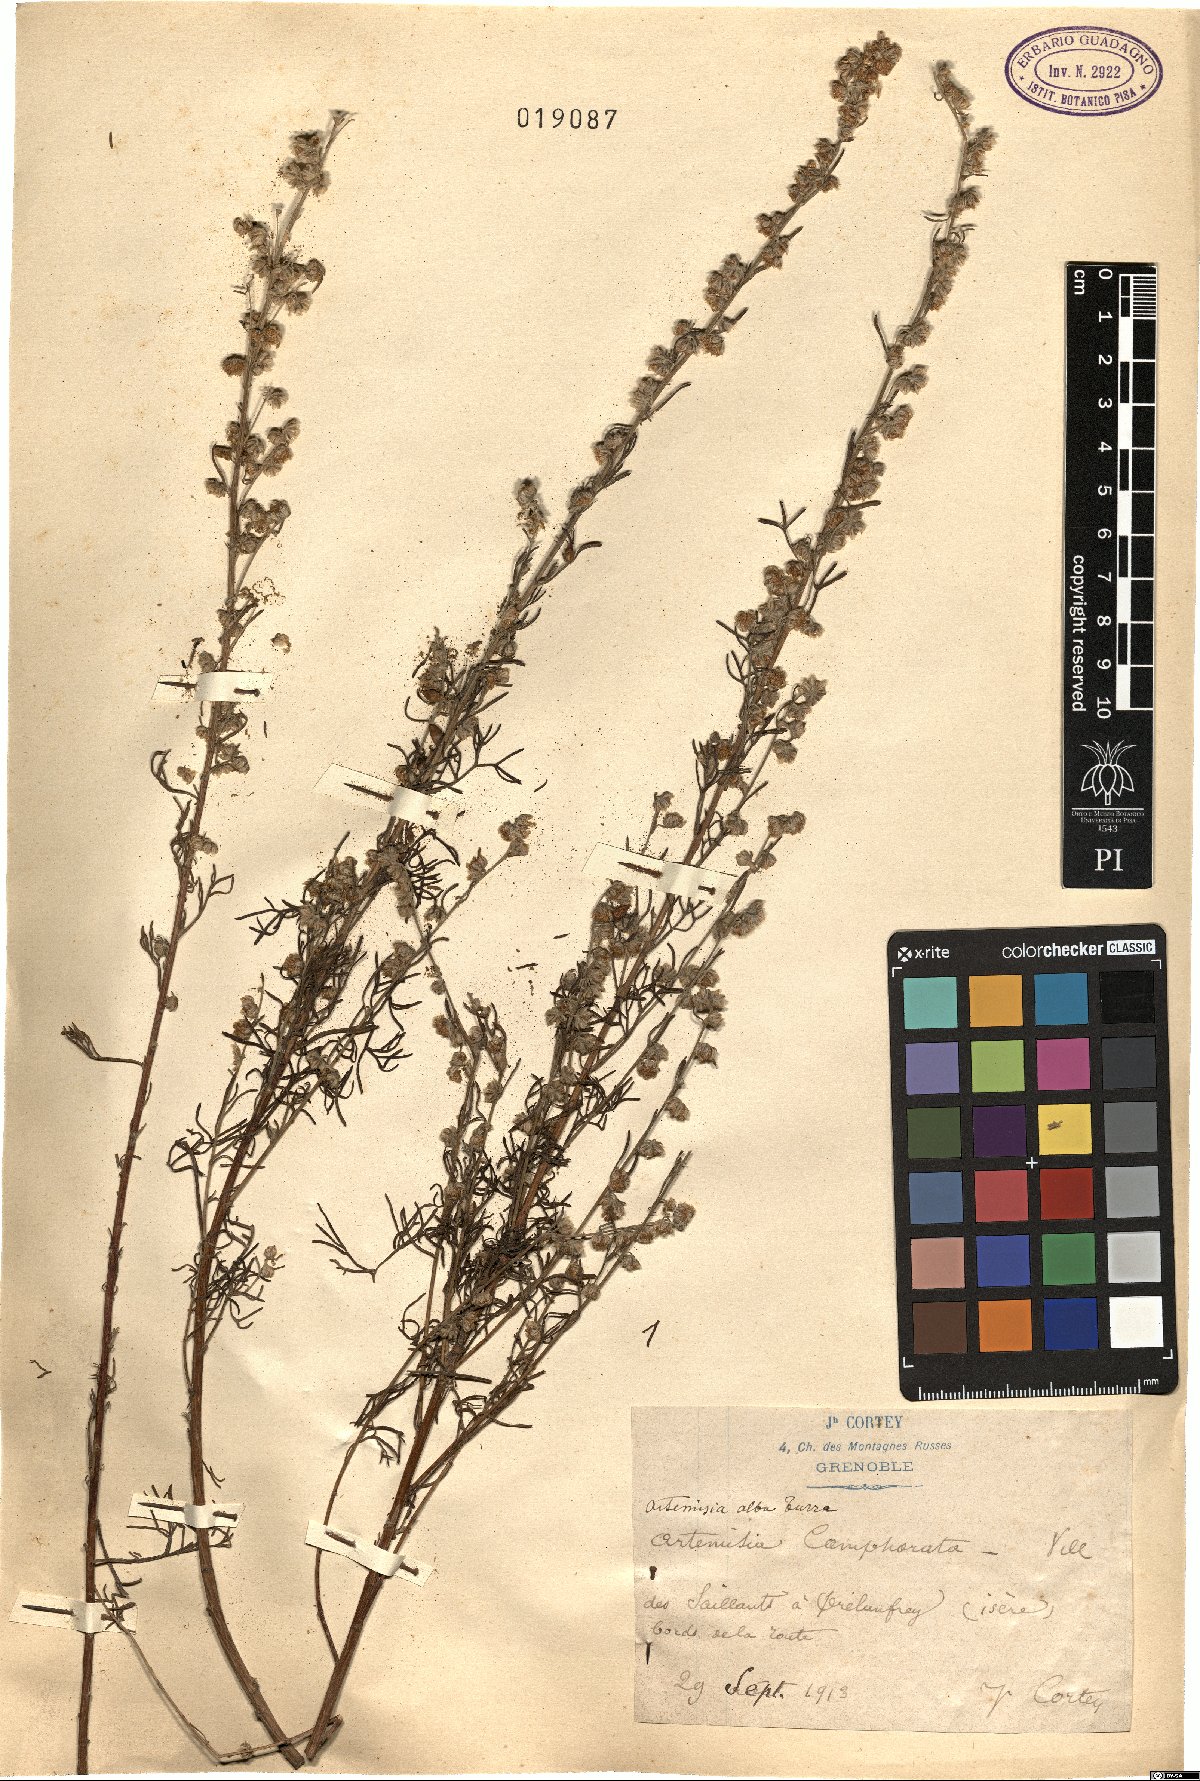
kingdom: Plantae
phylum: Tracheophyta
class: Magnoliopsida
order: Asterales
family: Asteraceae
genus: Artemisia
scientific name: Artemisia alba
